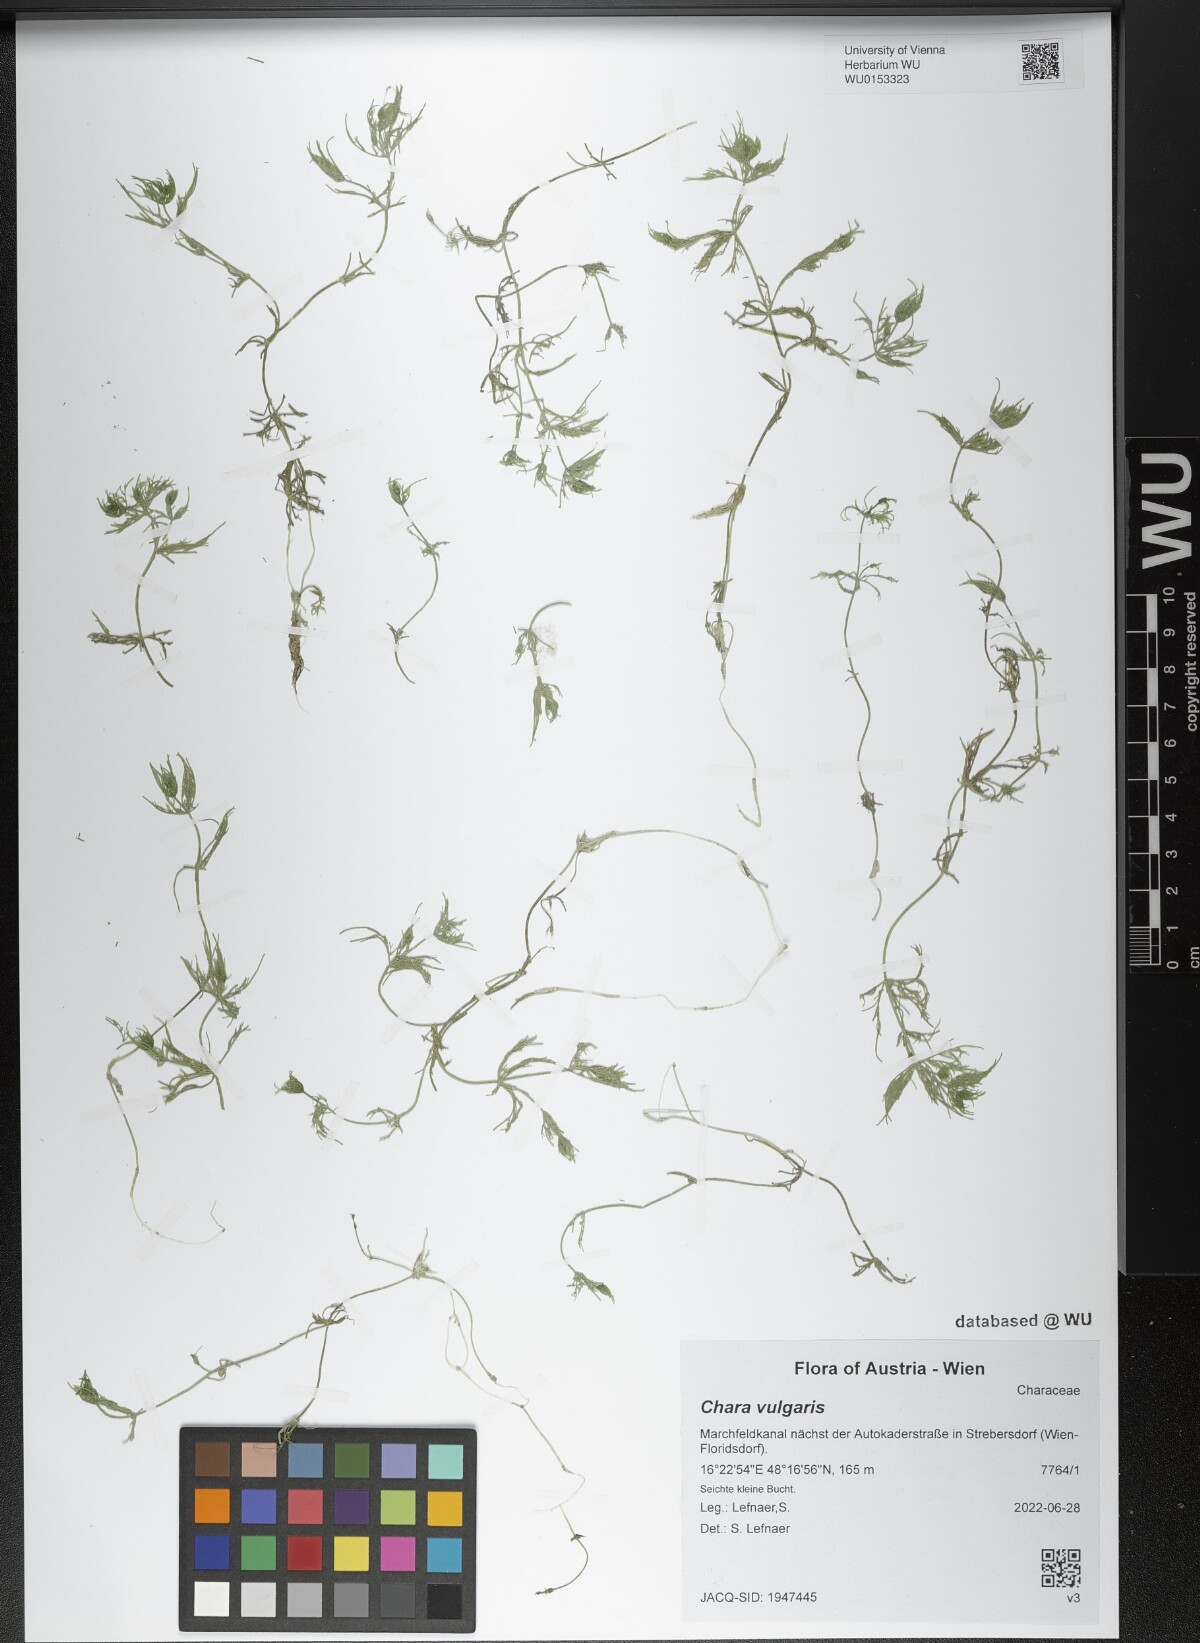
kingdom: Plantae
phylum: Charophyta
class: Charophyceae
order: Charales
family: Characeae
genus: Chara
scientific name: Chara vulgaris
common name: Common stonewort
